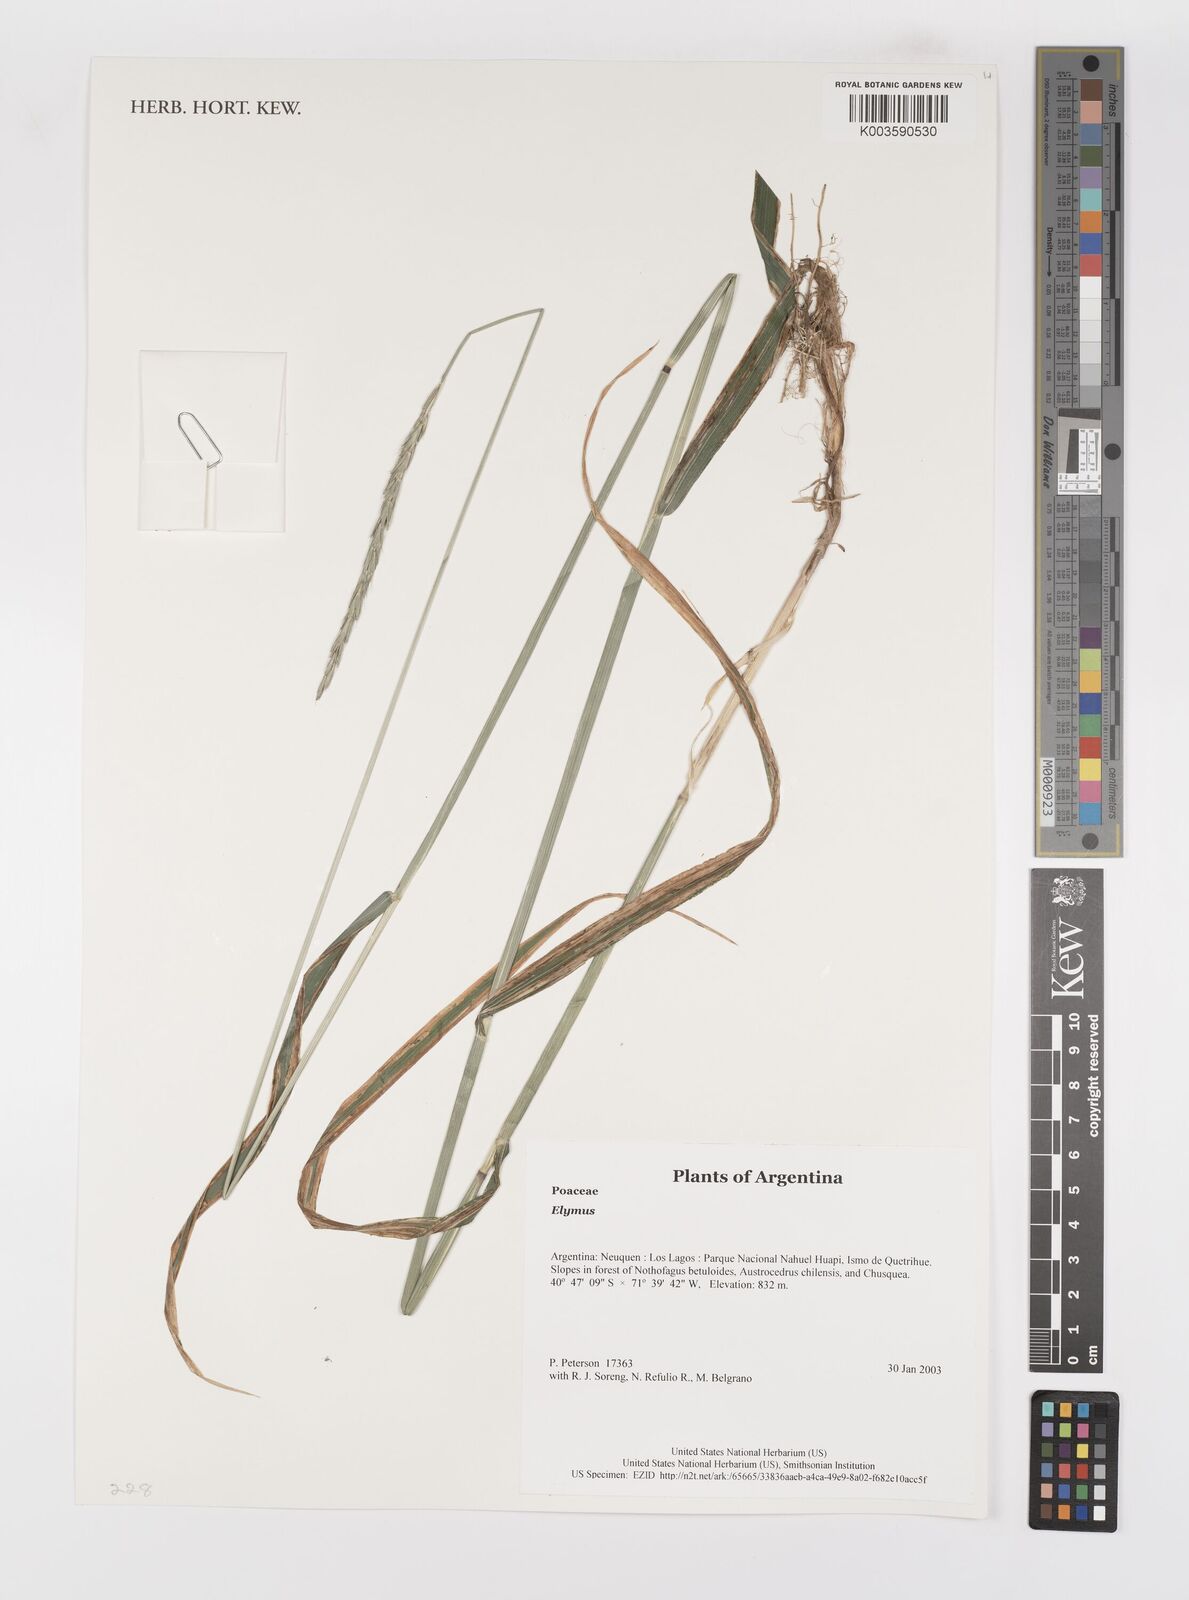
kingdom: Plantae
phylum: Tracheophyta
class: Liliopsida
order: Poales
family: Poaceae
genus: Elymus
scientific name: Elymus
